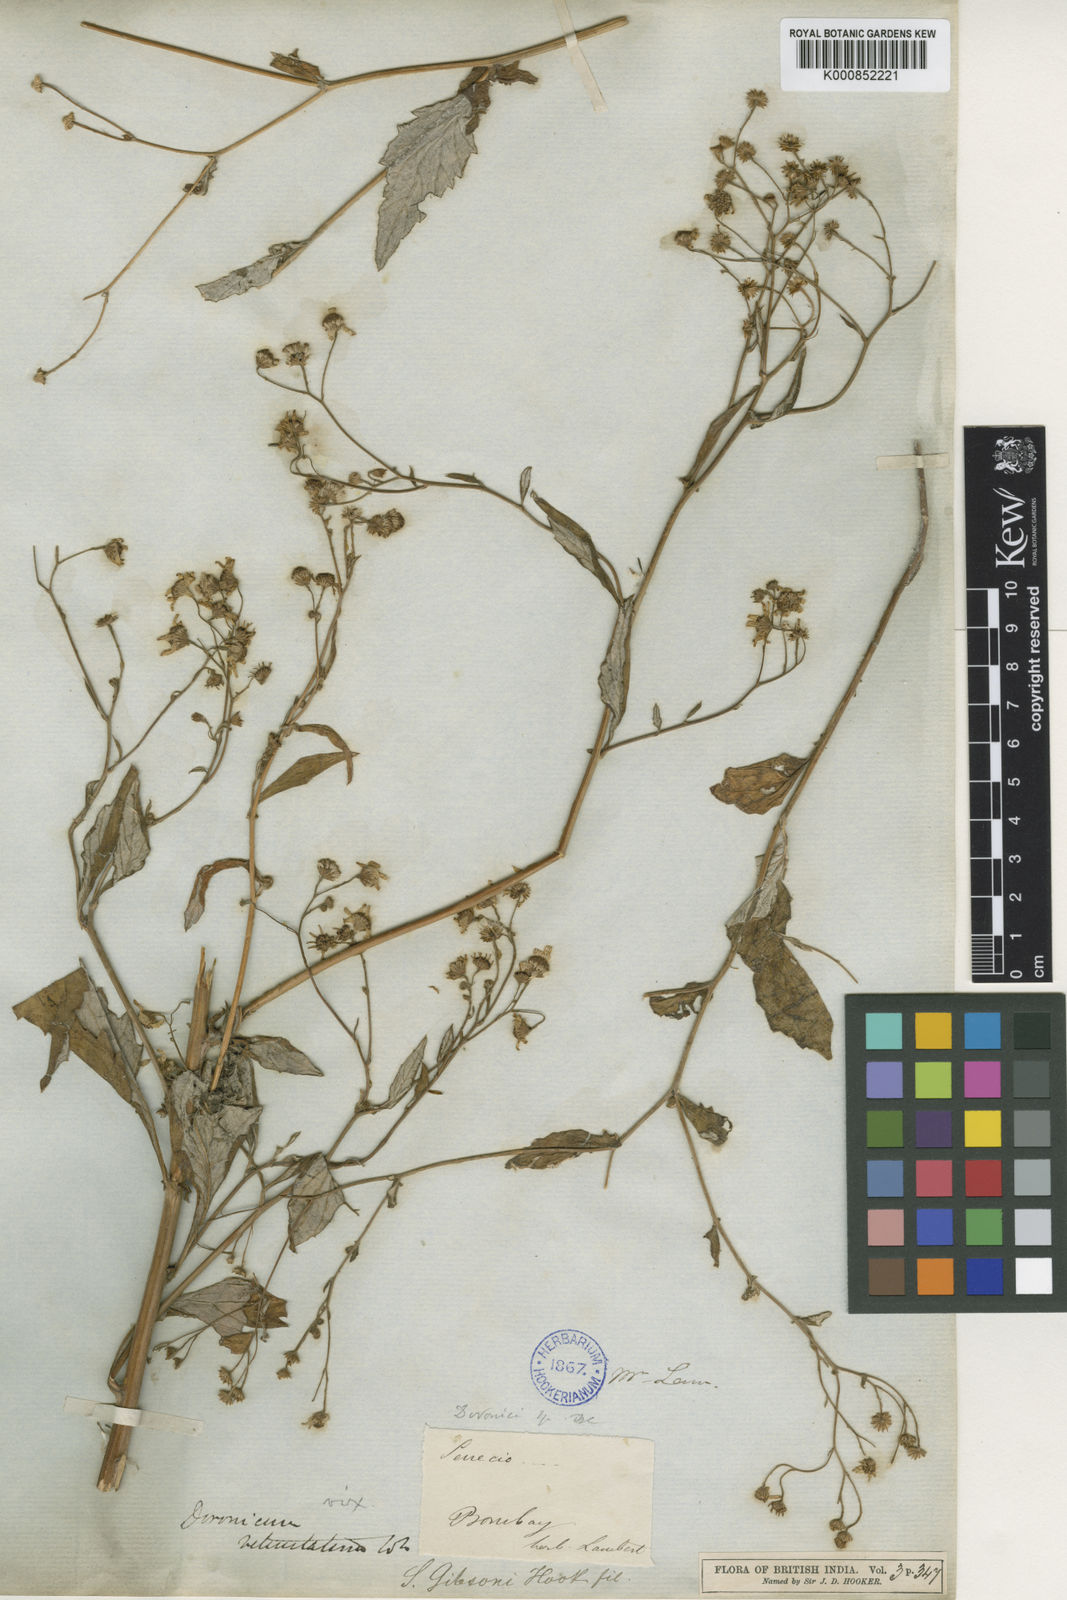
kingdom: Plantae
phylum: Tracheophyta
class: Magnoliopsida
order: Asterales
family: Asteraceae
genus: Senecio
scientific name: Senecio gibsonii
